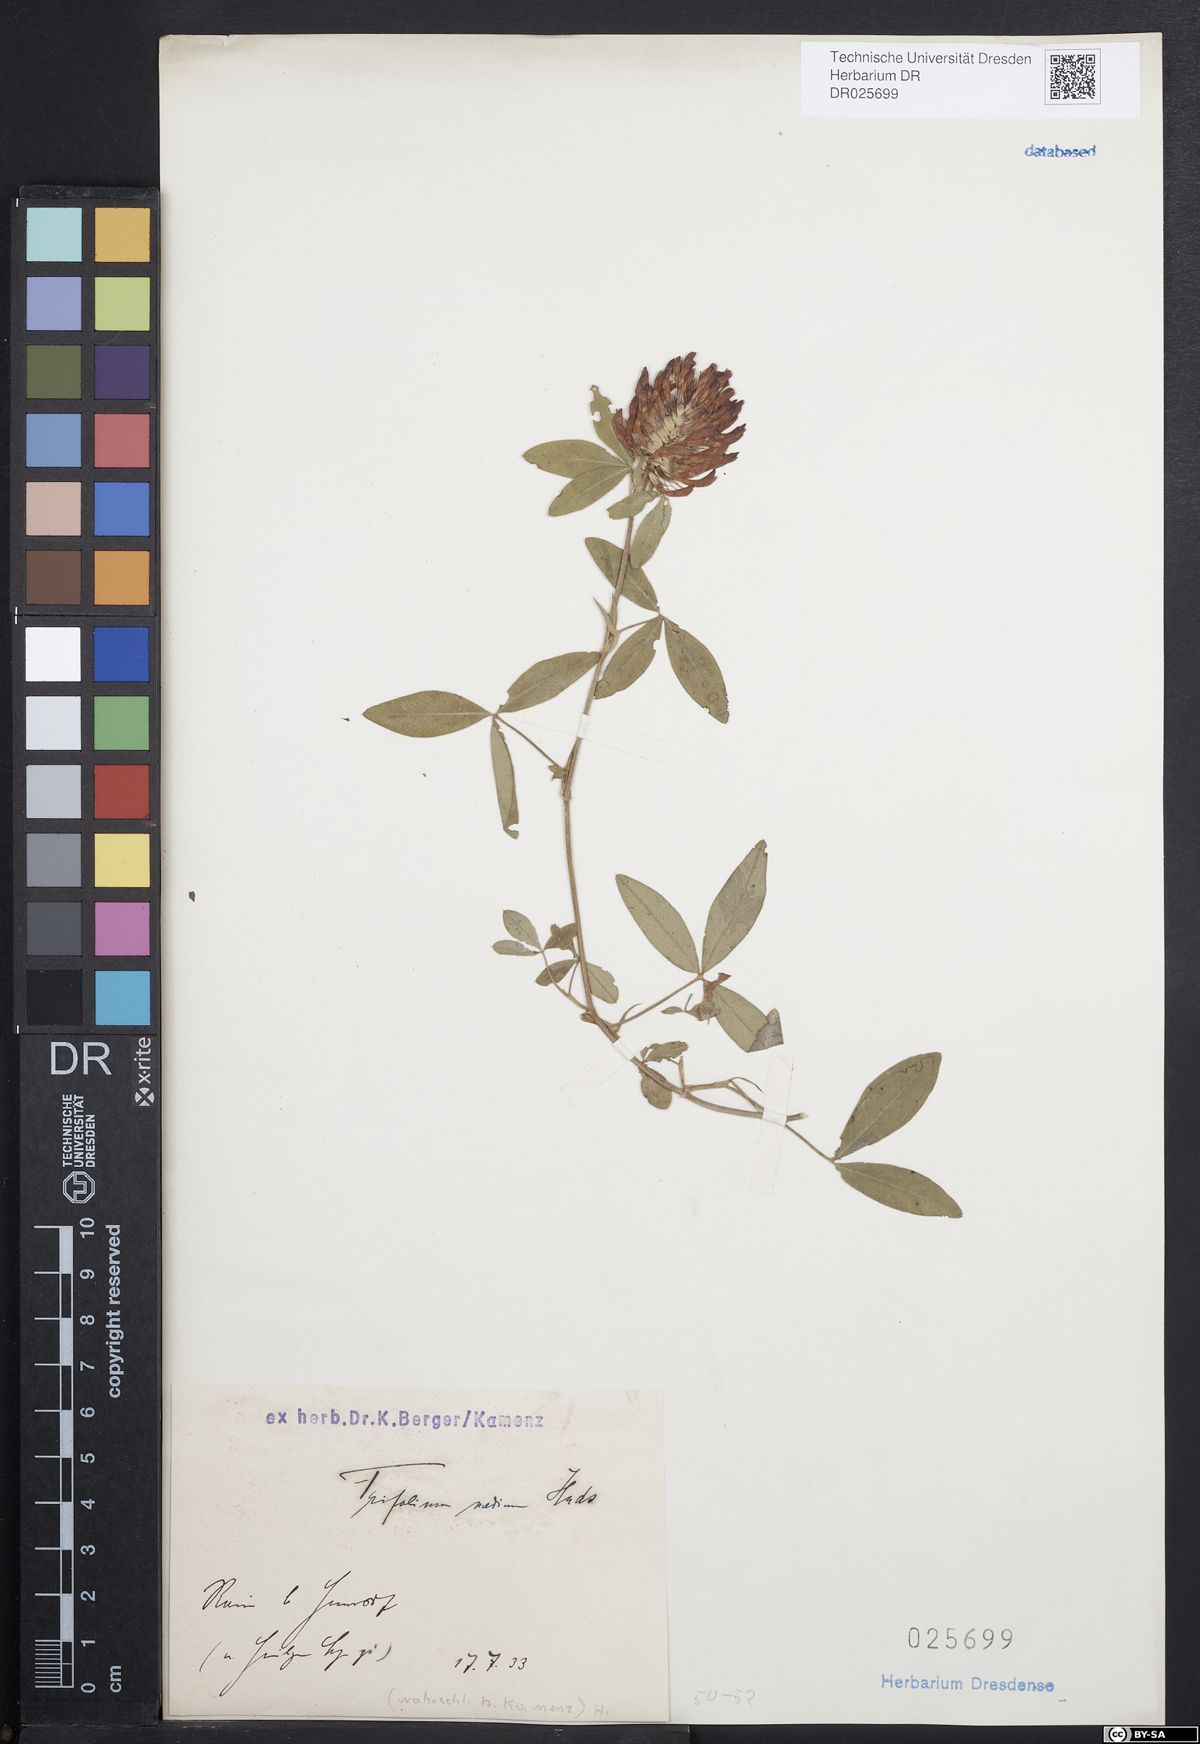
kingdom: Plantae
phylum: Tracheophyta
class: Magnoliopsida
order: Fabales
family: Fabaceae
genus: Trifolium
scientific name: Trifolium medium
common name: Zigzag clover
